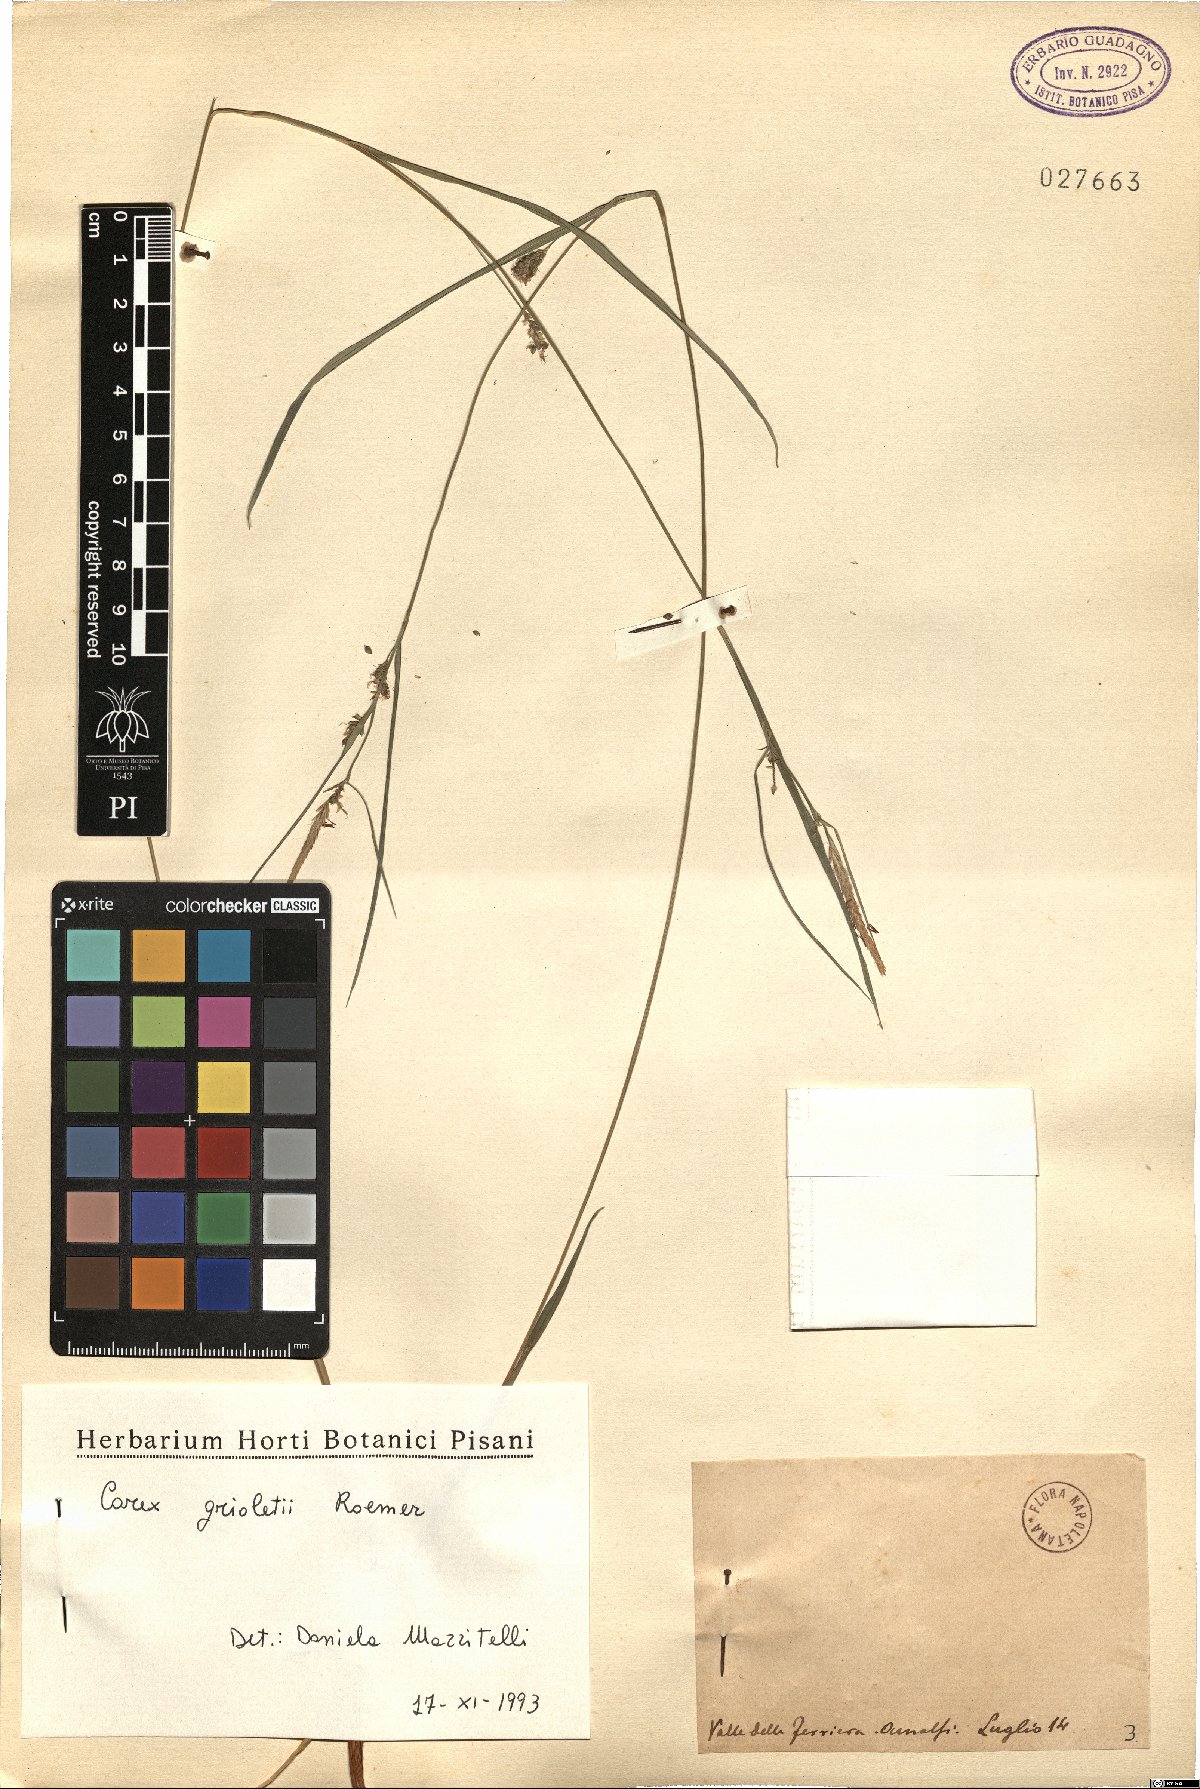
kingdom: Plantae
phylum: Tracheophyta
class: Liliopsida
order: Poales
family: Cyperaceae
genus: Carex
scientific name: Carex grioletii
